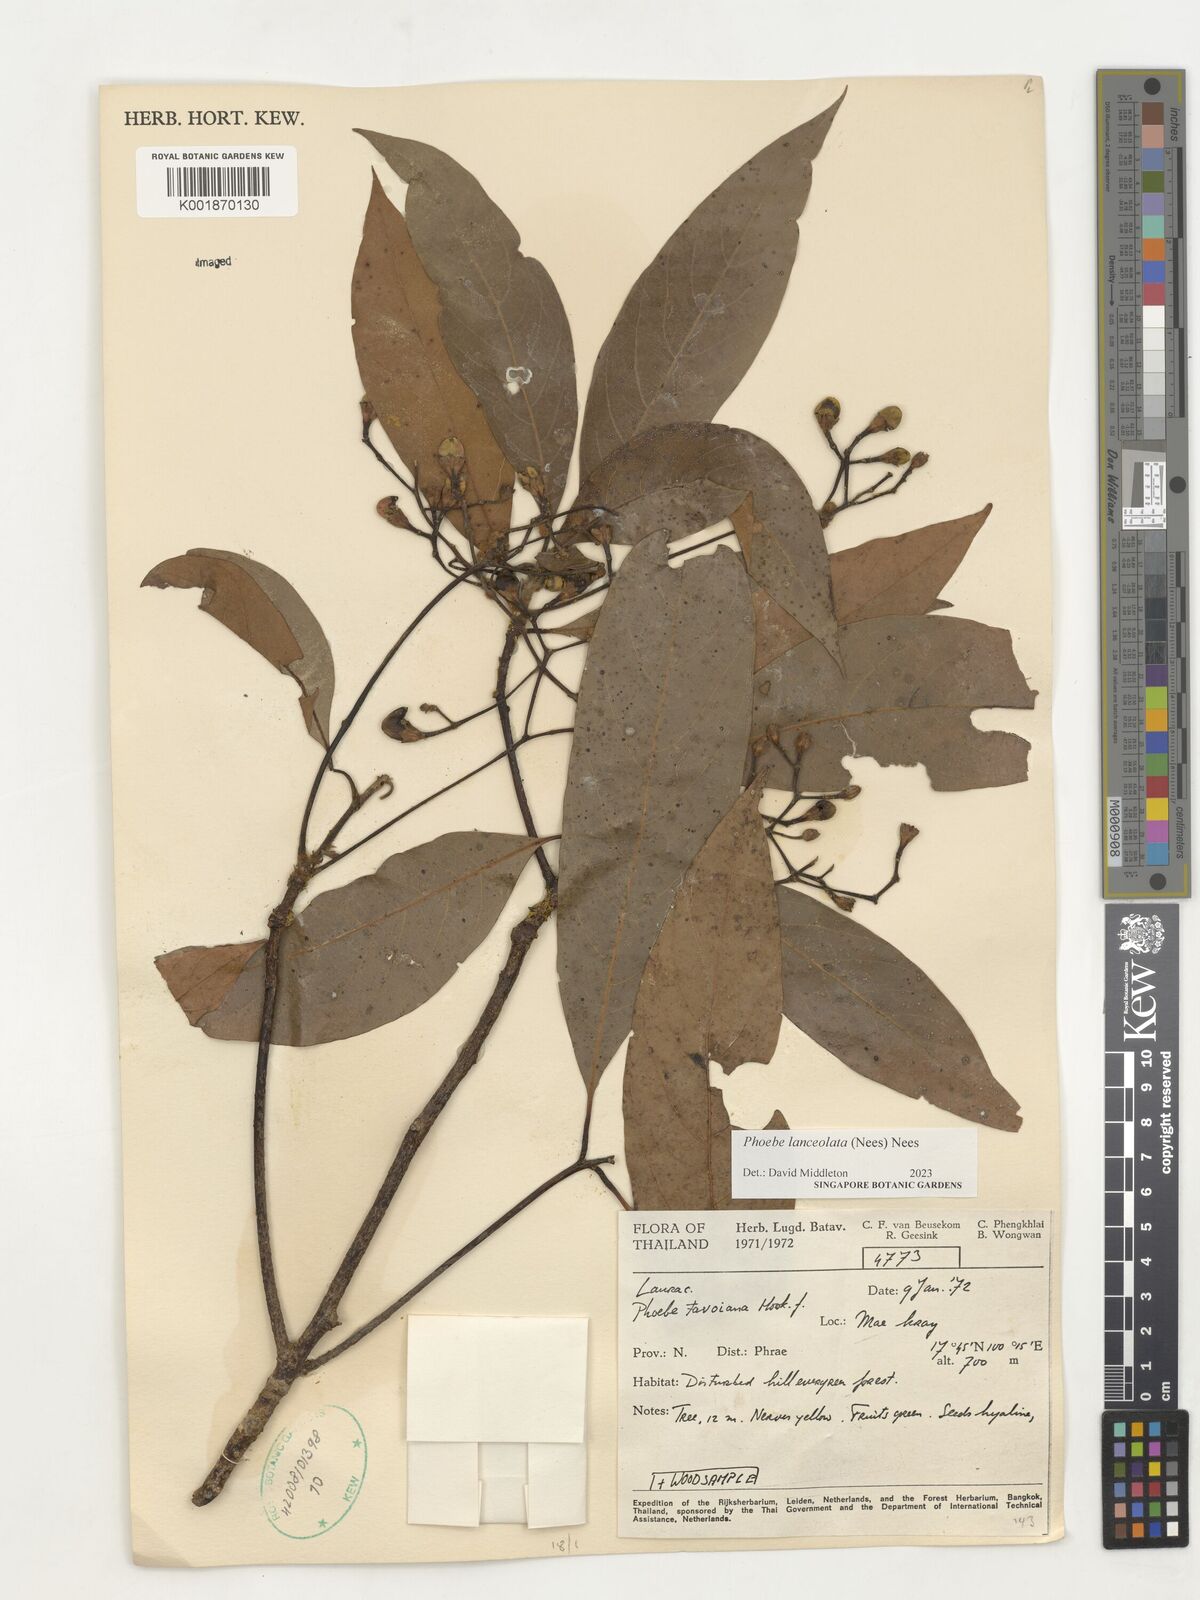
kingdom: Plantae
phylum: Tracheophyta
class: Magnoliopsida
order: Laurales
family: Lauraceae
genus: Phoebe
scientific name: Phoebe lanceolata
